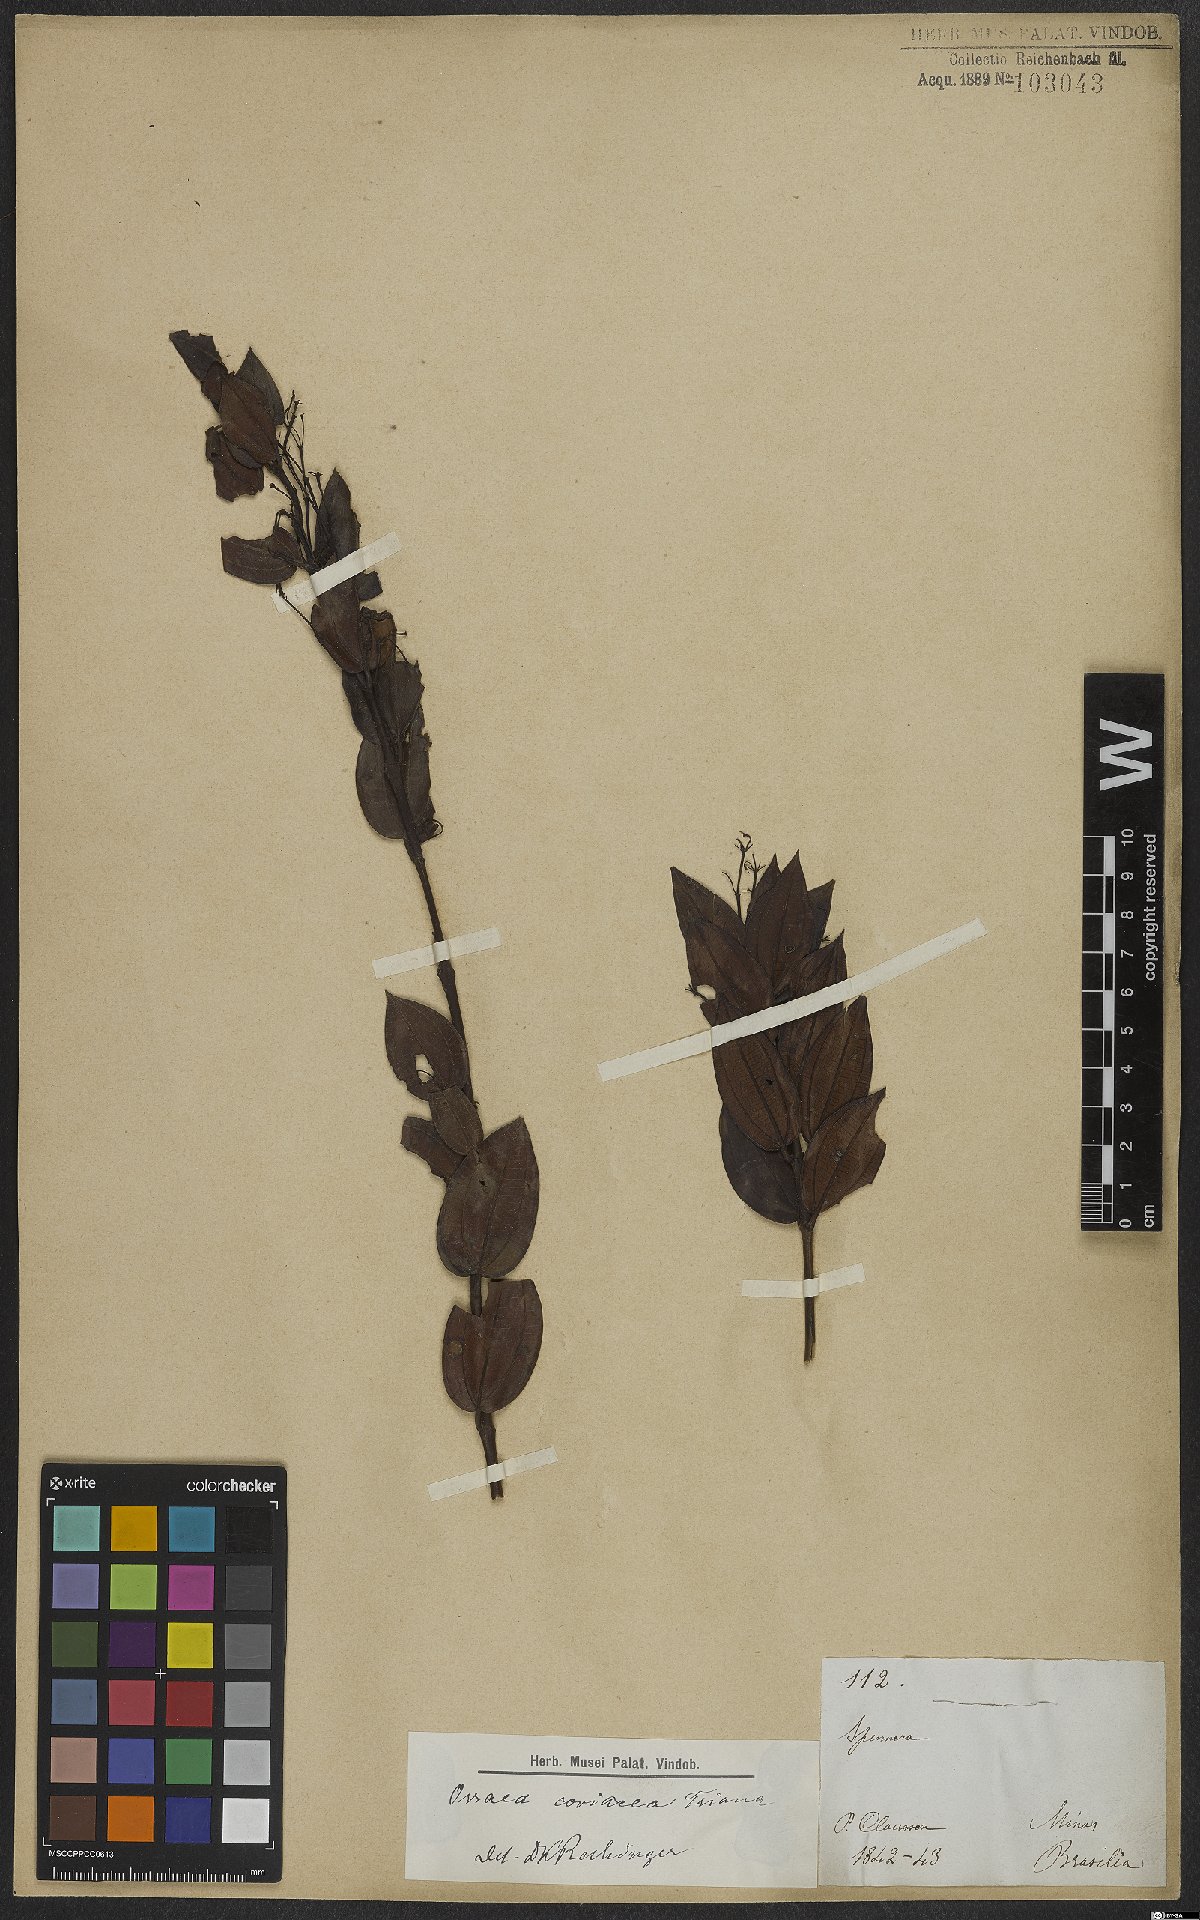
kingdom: Plantae
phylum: Tracheophyta
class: Magnoliopsida
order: Myrtales
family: Melastomataceae
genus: Miconia
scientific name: Miconia leabiscoriacea
